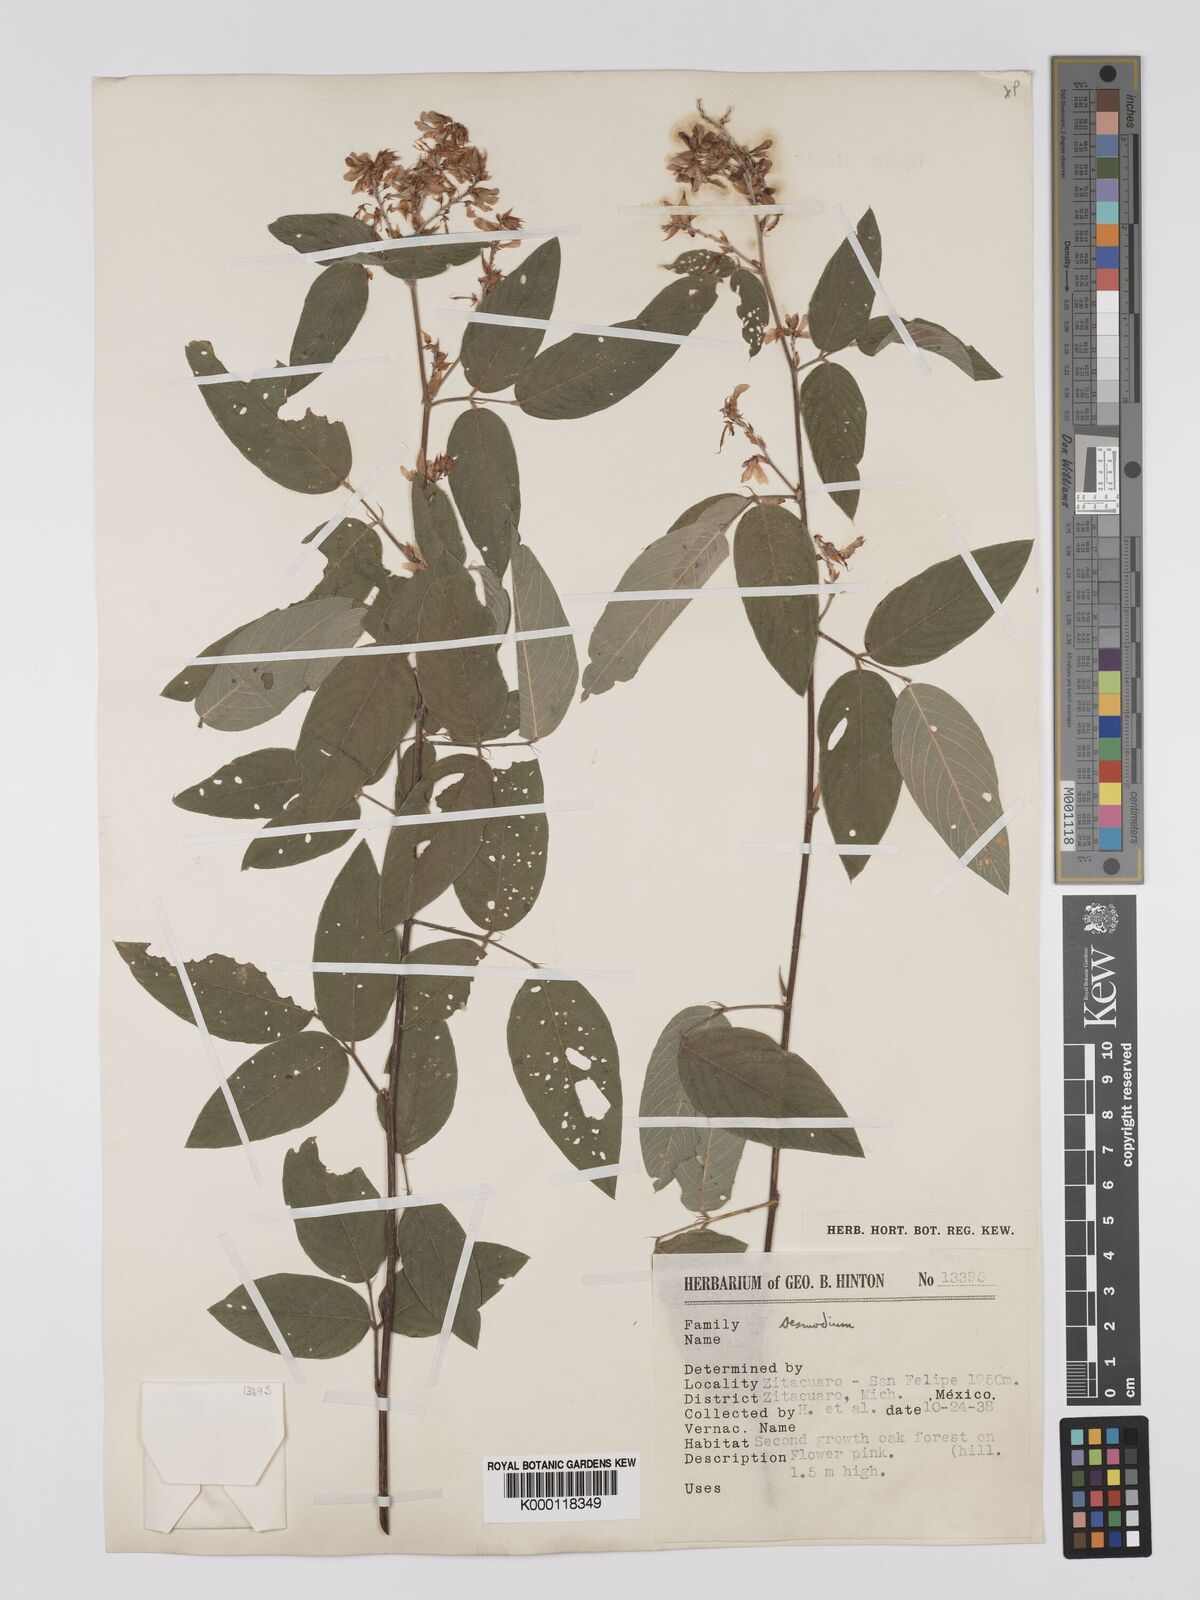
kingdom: Plantae
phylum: Tracheophyta
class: Magnoliopsida
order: Fabales
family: Fabaceae
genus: Desmodium
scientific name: Desmodium jaliscanum
